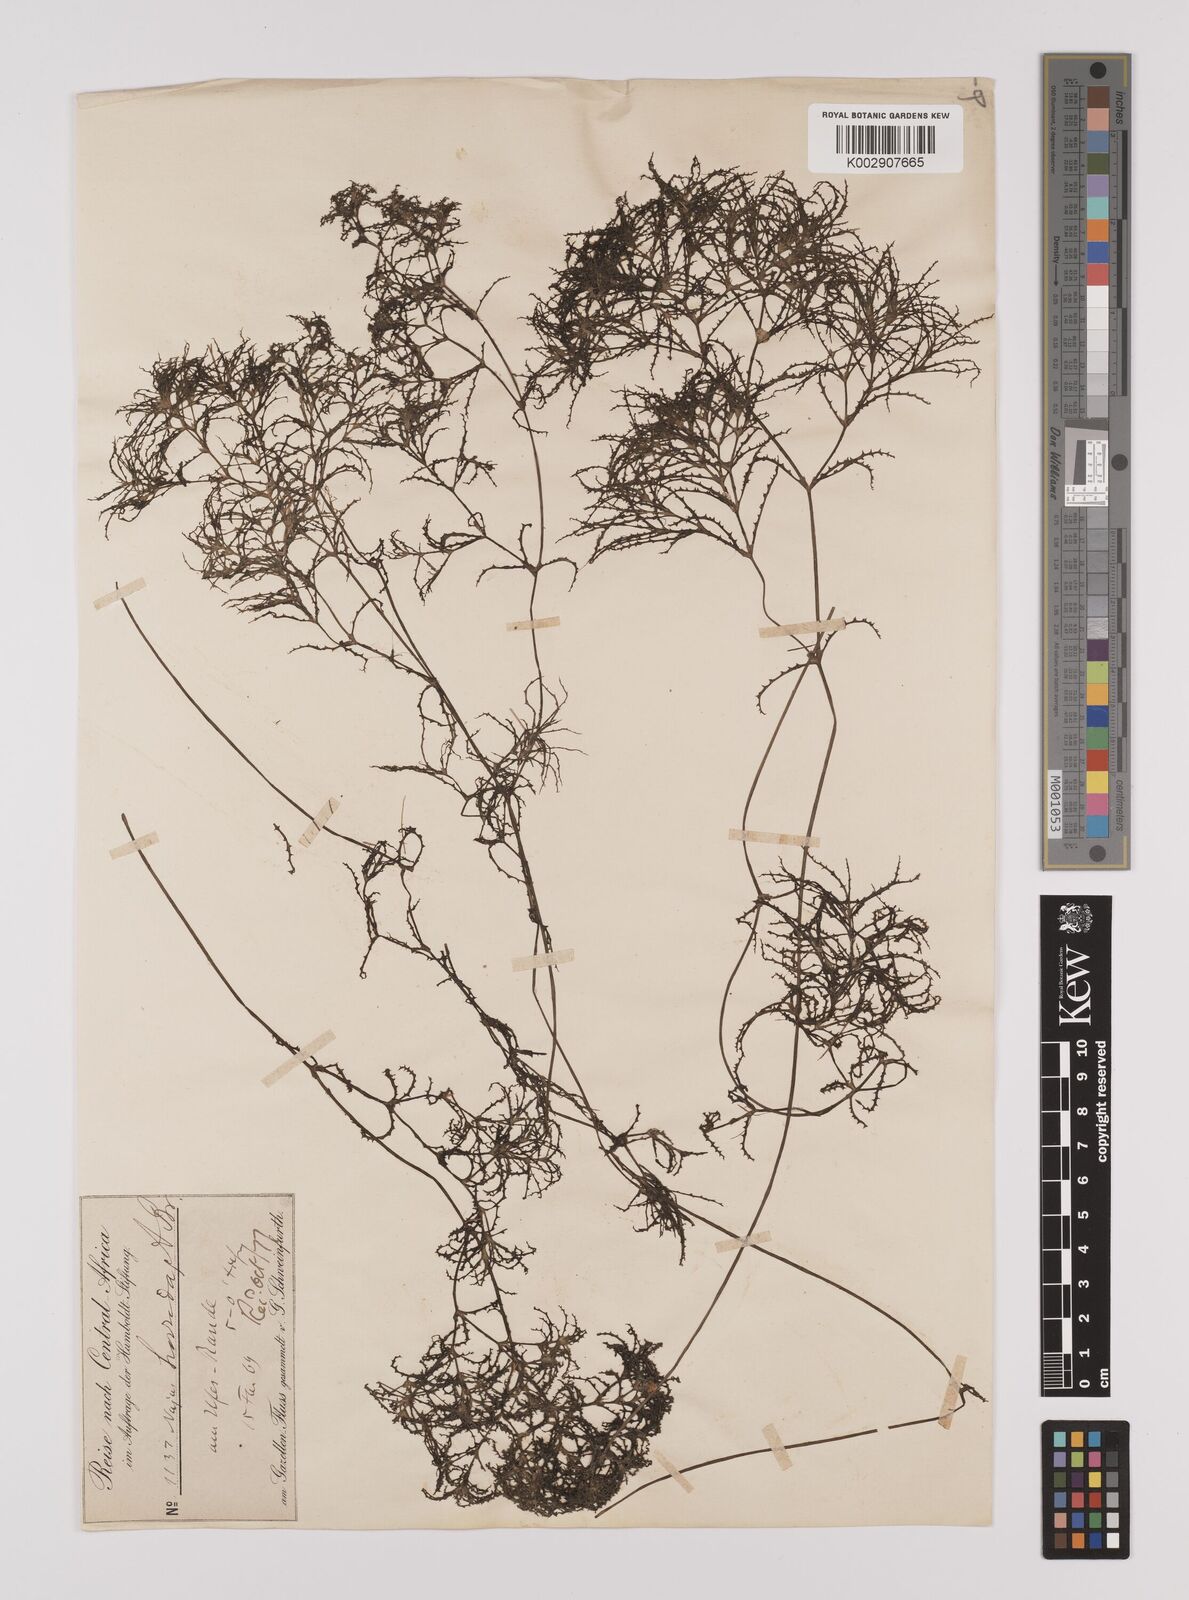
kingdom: Plantae
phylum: Tracheophyta
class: Liliopsida
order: Alismatales
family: Hydrocharitaceae
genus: Najas
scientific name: Najas pectinata
